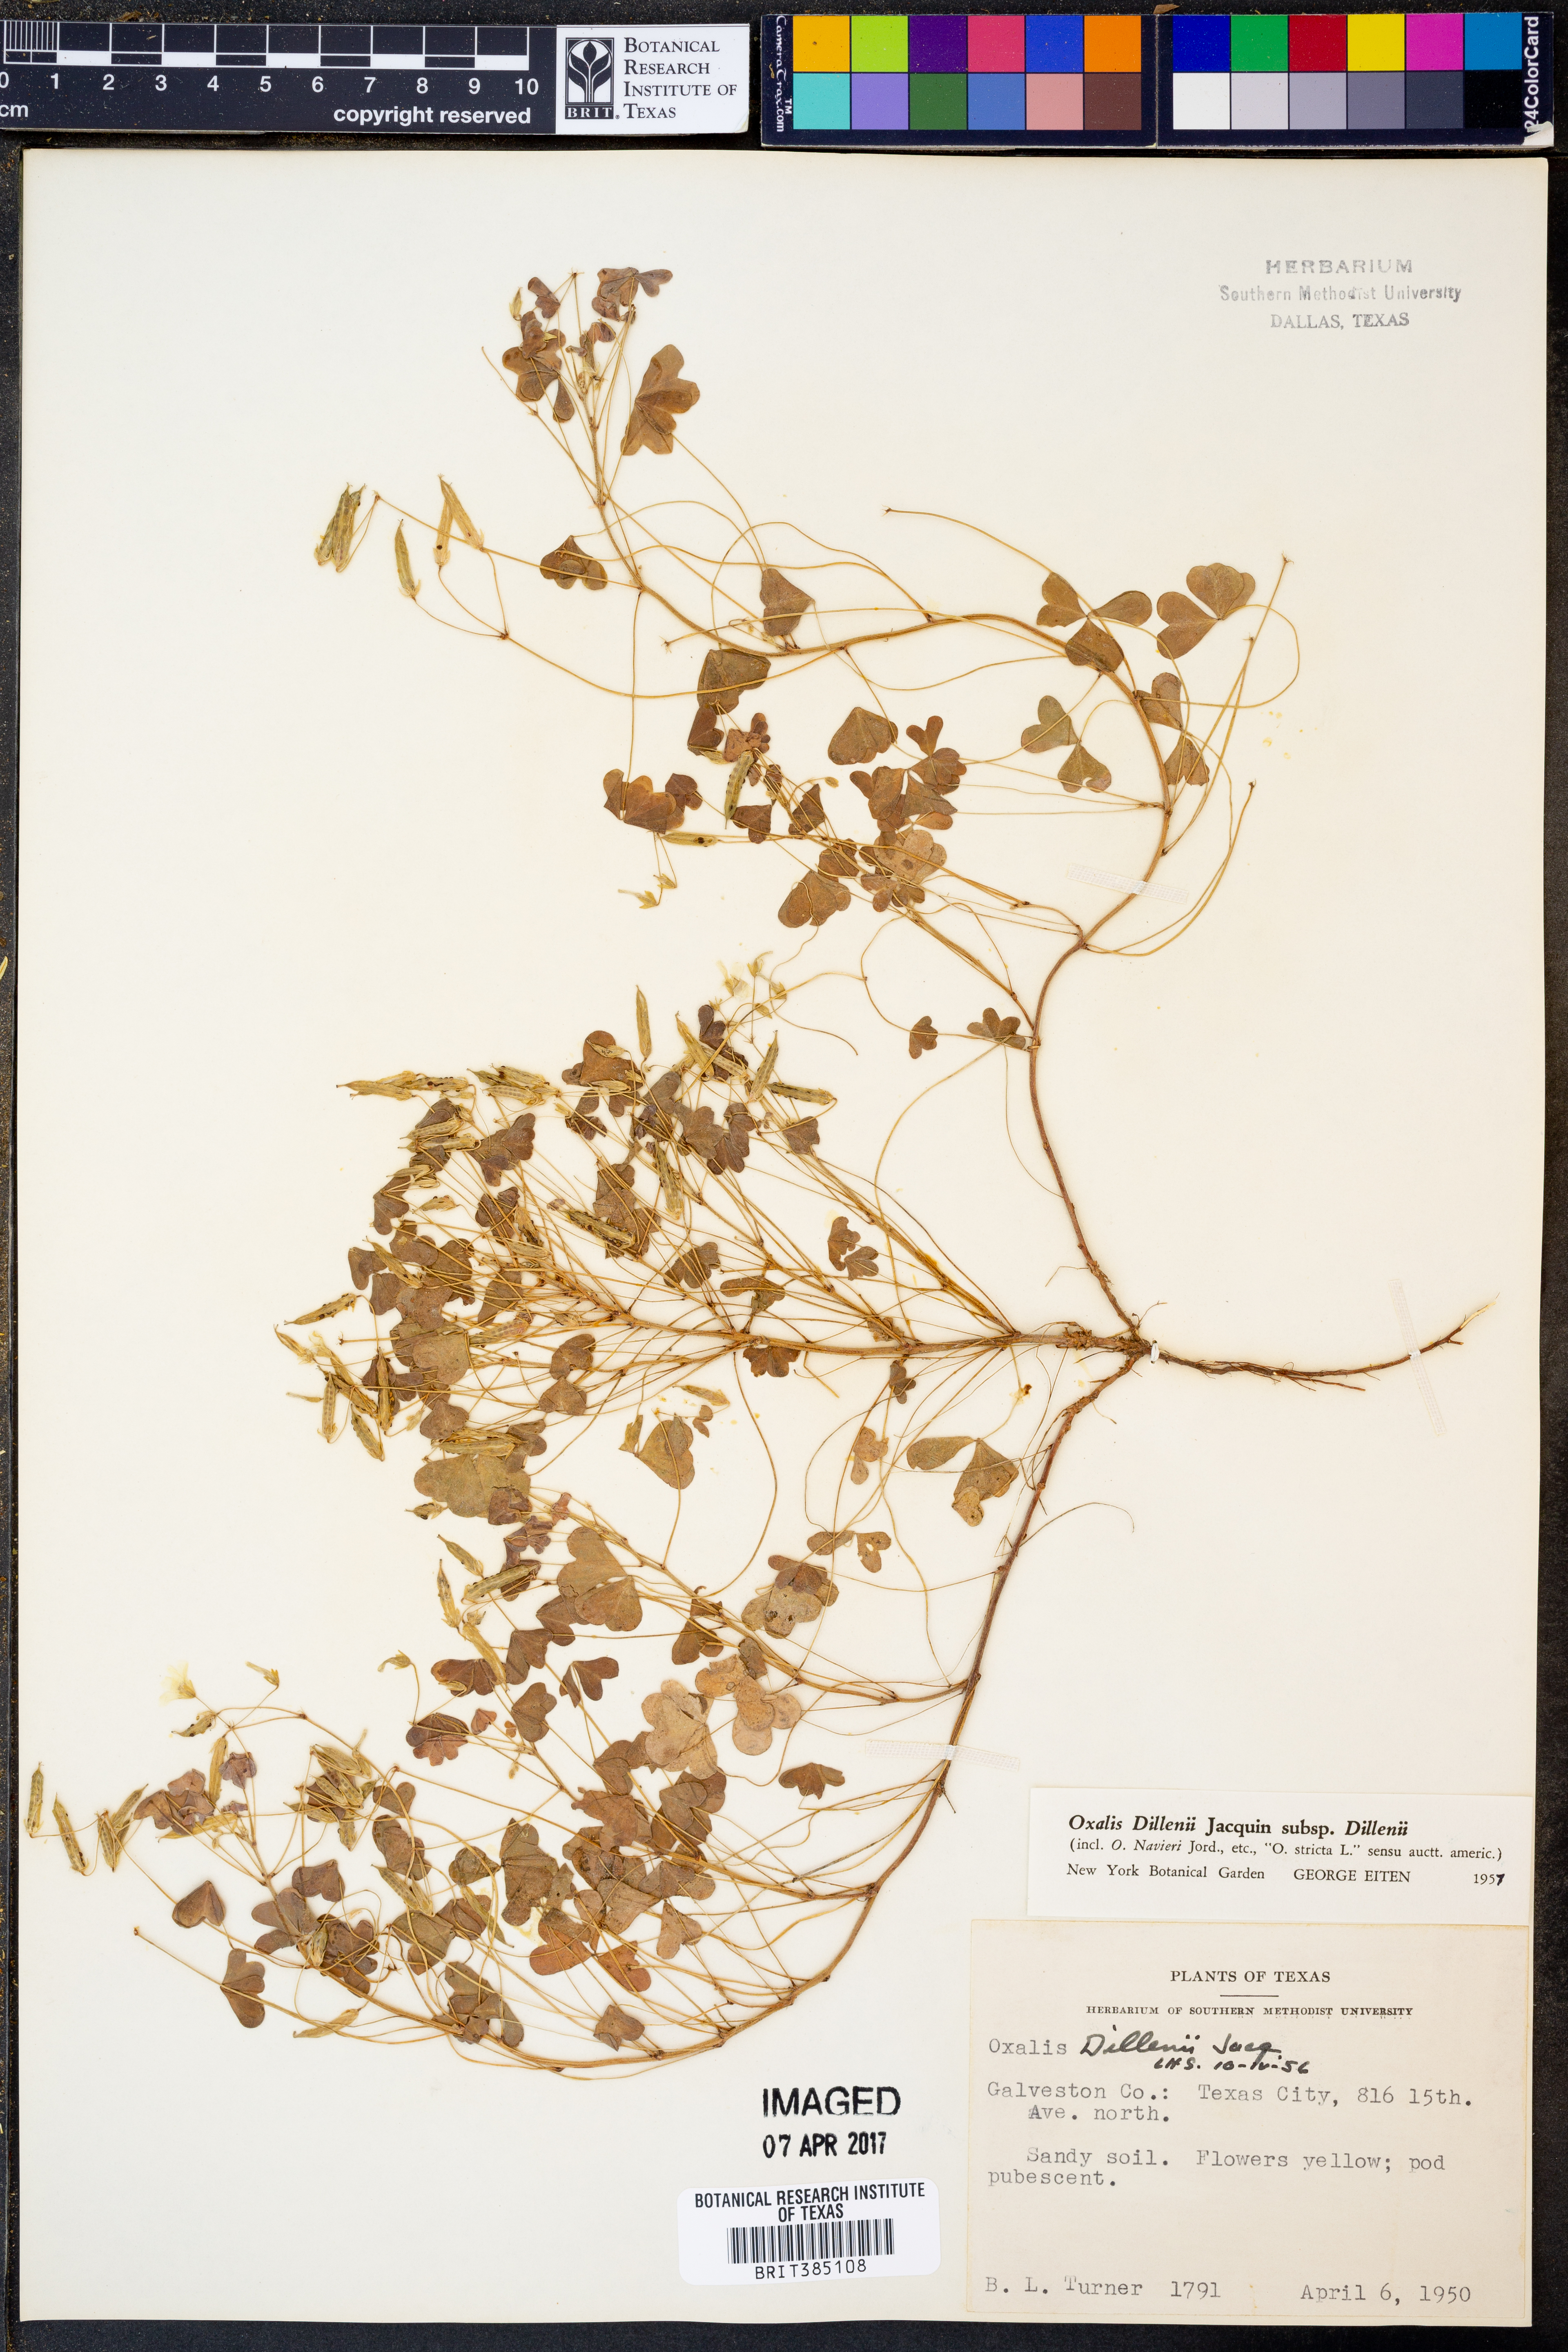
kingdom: Plantae
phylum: Tracheophyta
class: Magnoliopsida
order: Oxalidales
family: Oxalidaceae
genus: Oxalis
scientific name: Oxalis dillenii
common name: Sussex yellow-sorrel
